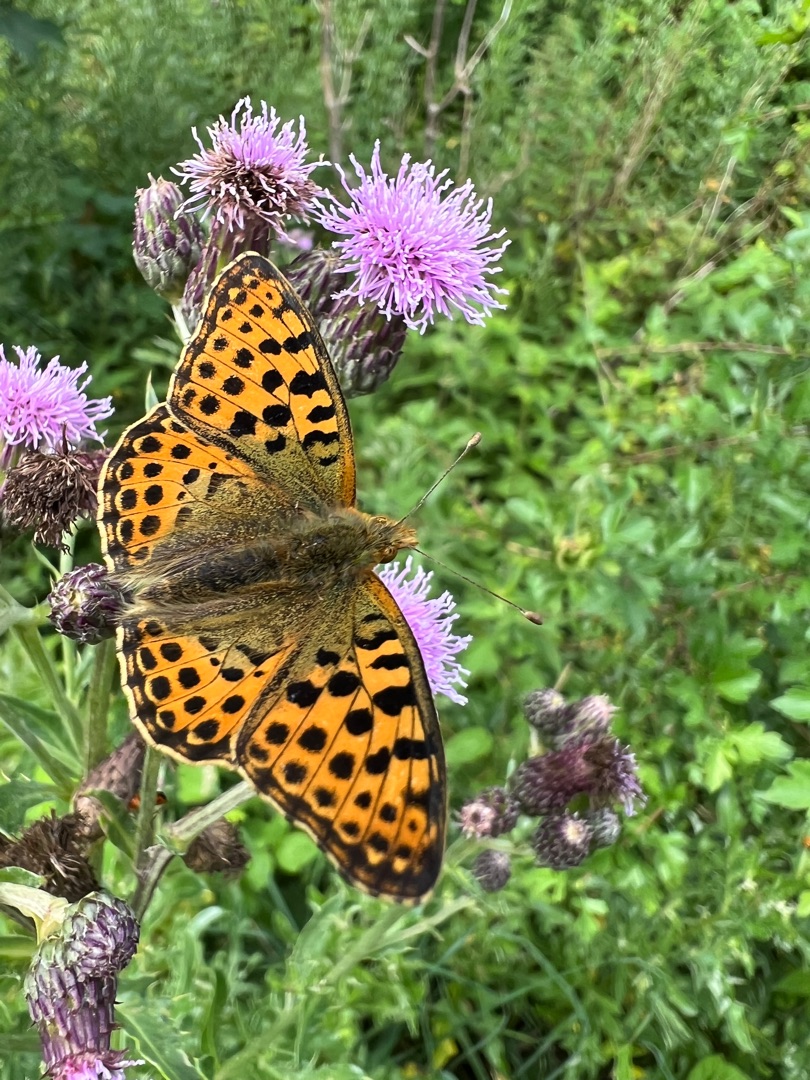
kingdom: Animalia
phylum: Arthropoda
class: Insecta
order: Lepidoptera
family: Nymphalidae
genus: Issoria
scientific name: Issoria lathonia
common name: Storplettet perlemorsommerfugl
